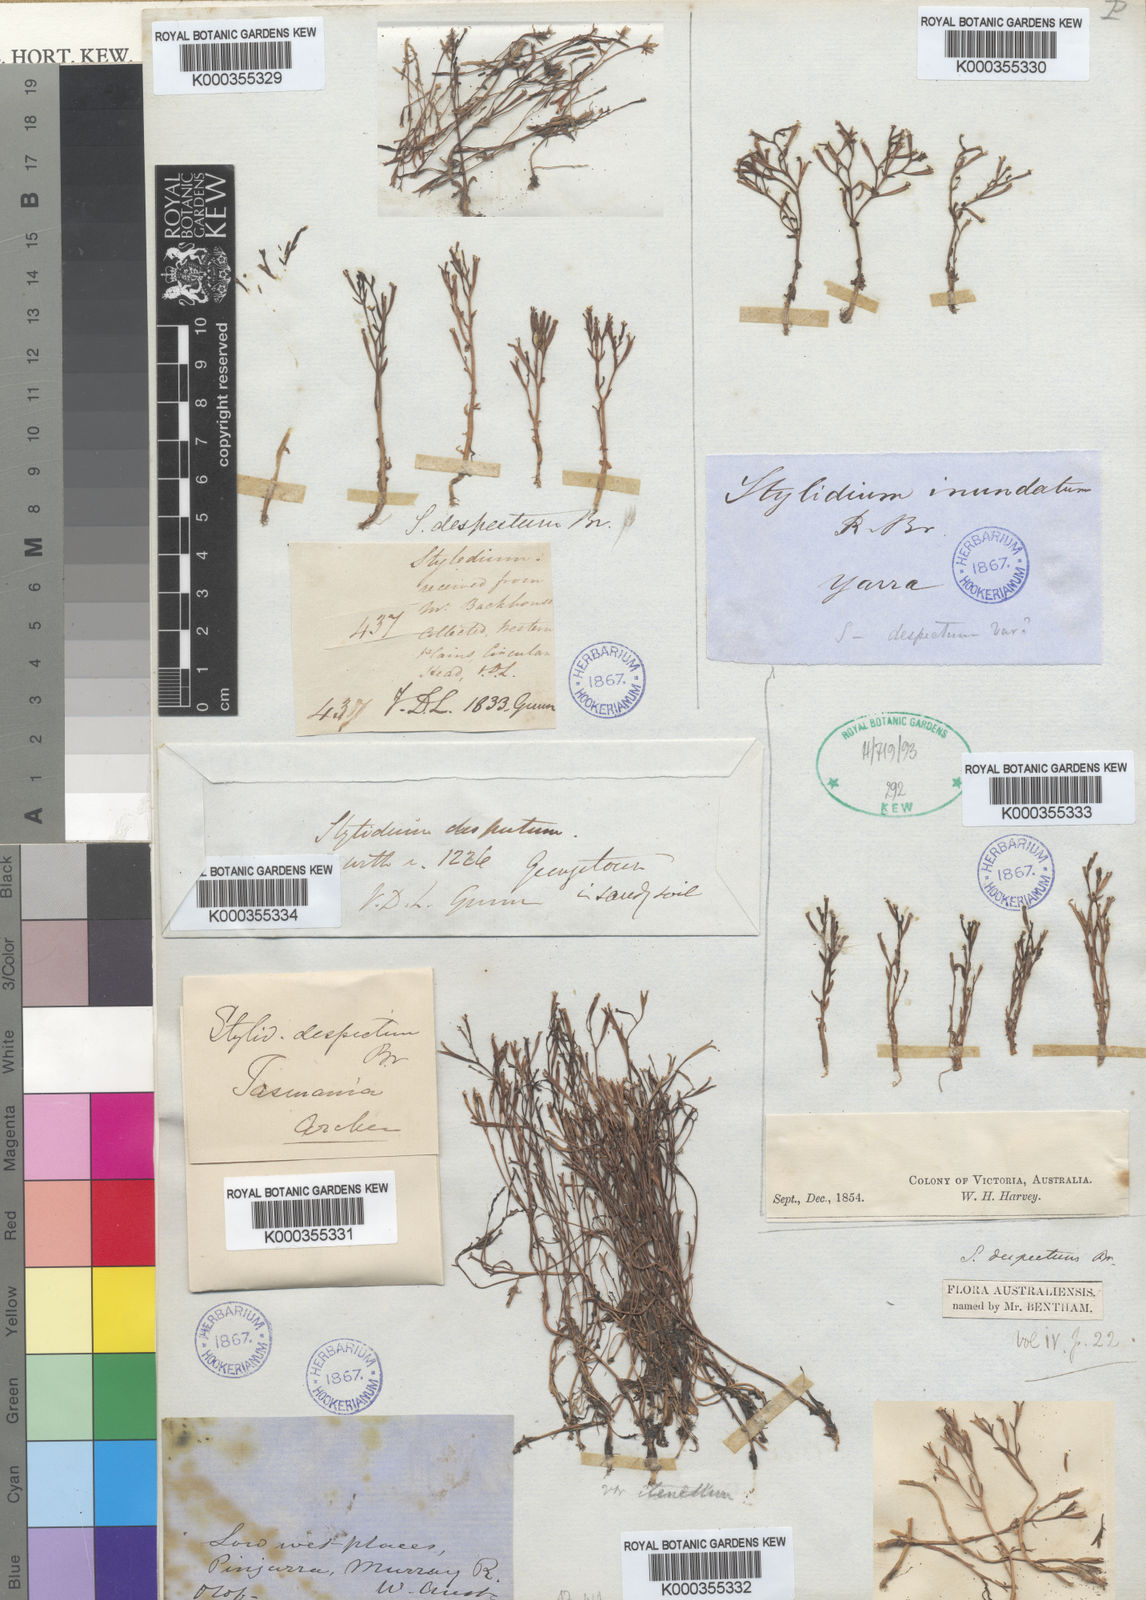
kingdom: Plantae
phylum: Tracheophyta
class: Magnoliopsida
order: Asterales
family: Stylidiaceae
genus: Stylidium
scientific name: Stylidium despectum
